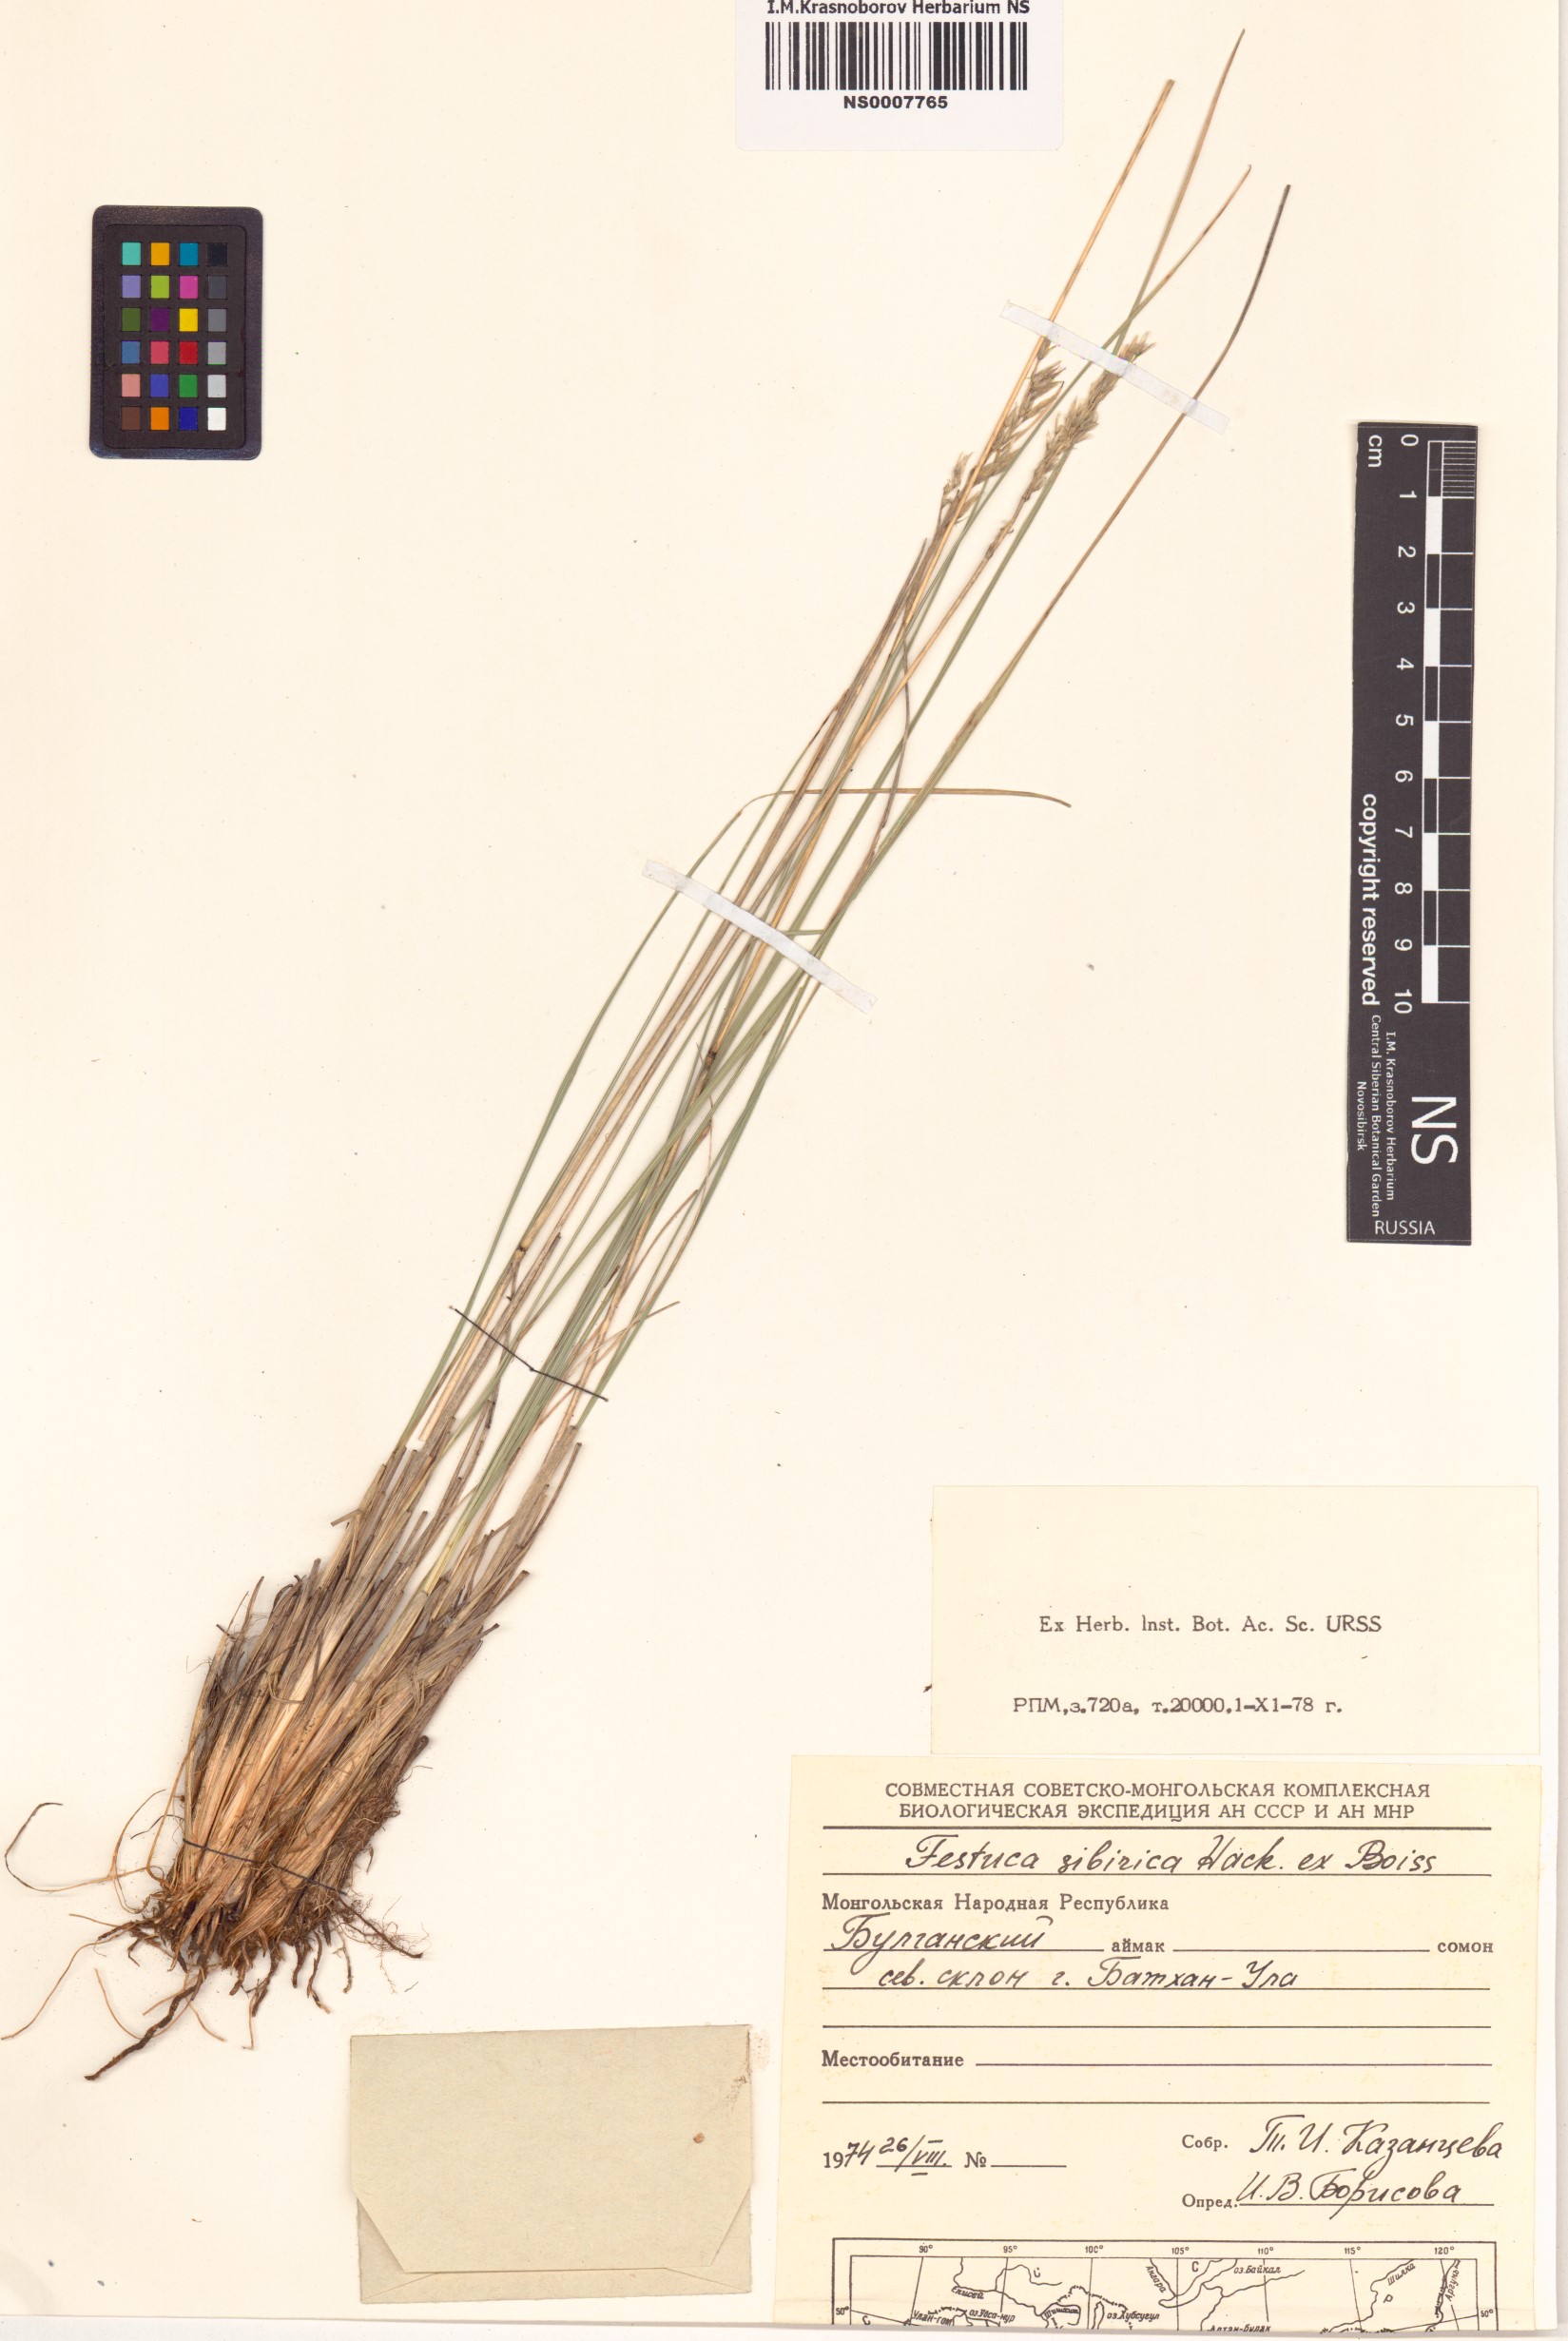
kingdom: Plantae
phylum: Tracheophyta
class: Liliopsida
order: Poales
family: Poaceae
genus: Festuca
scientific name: Festuca sibirica
